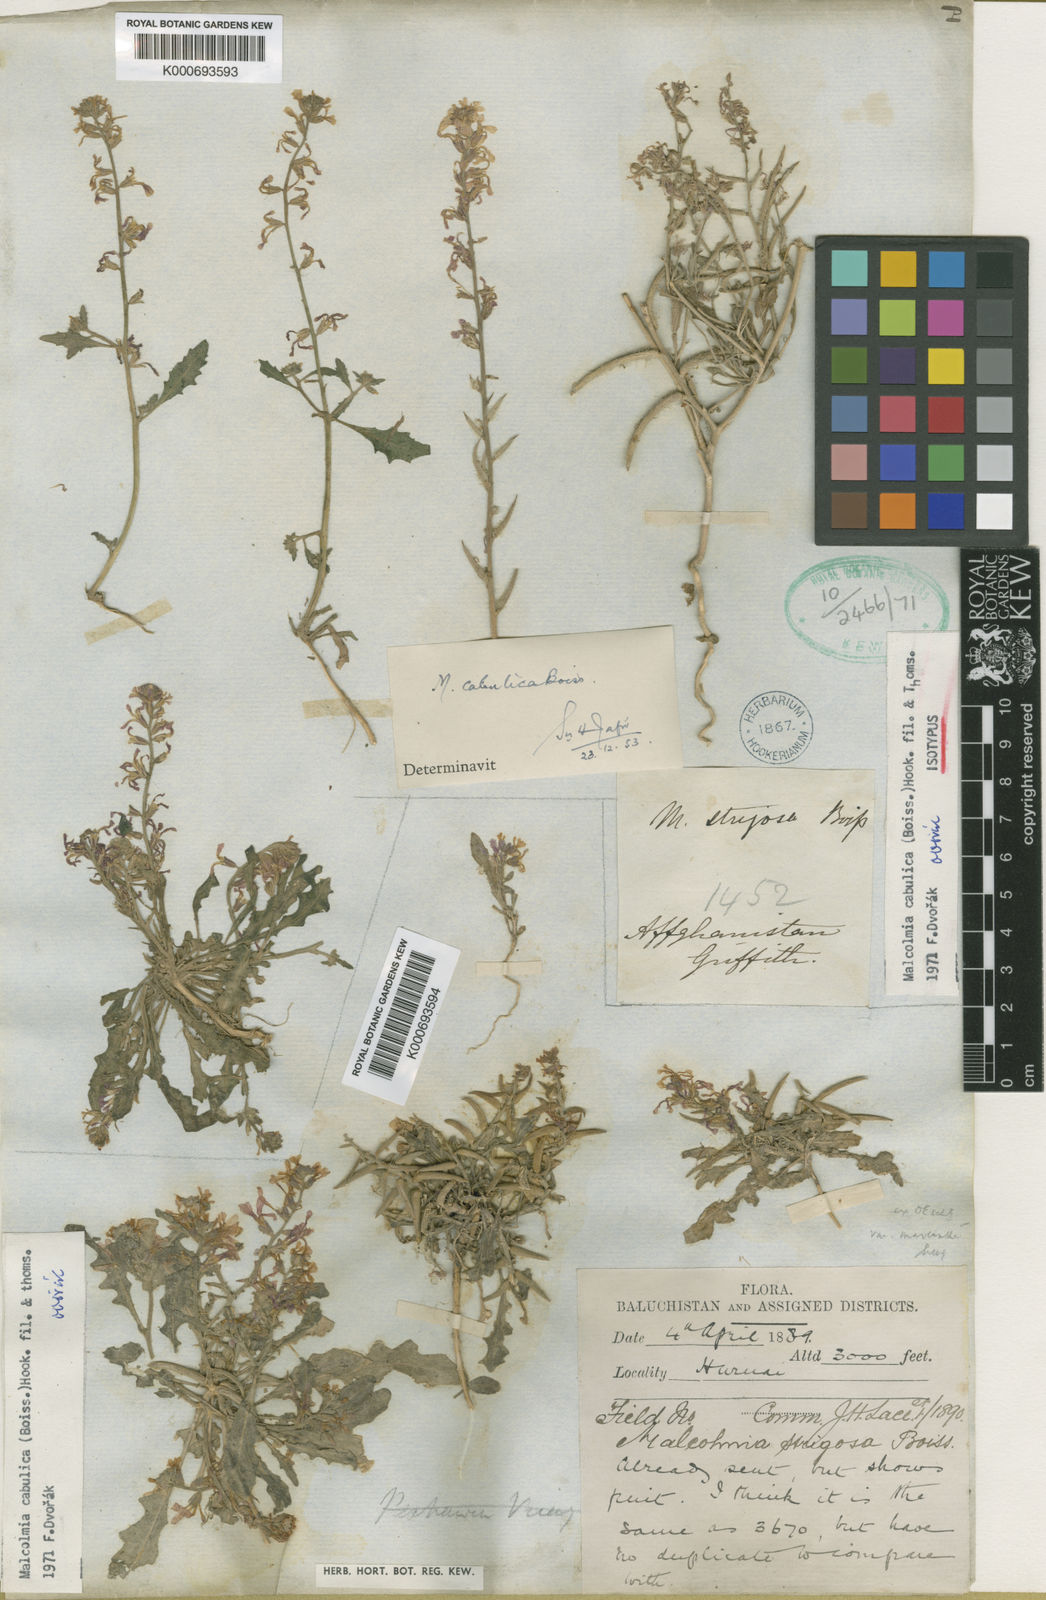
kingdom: Plantae
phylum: Tracheophyta
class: Magnoliopsida
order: Brassicales
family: Brassicaceae
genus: Strigosella
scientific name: Strigosella cabulica
